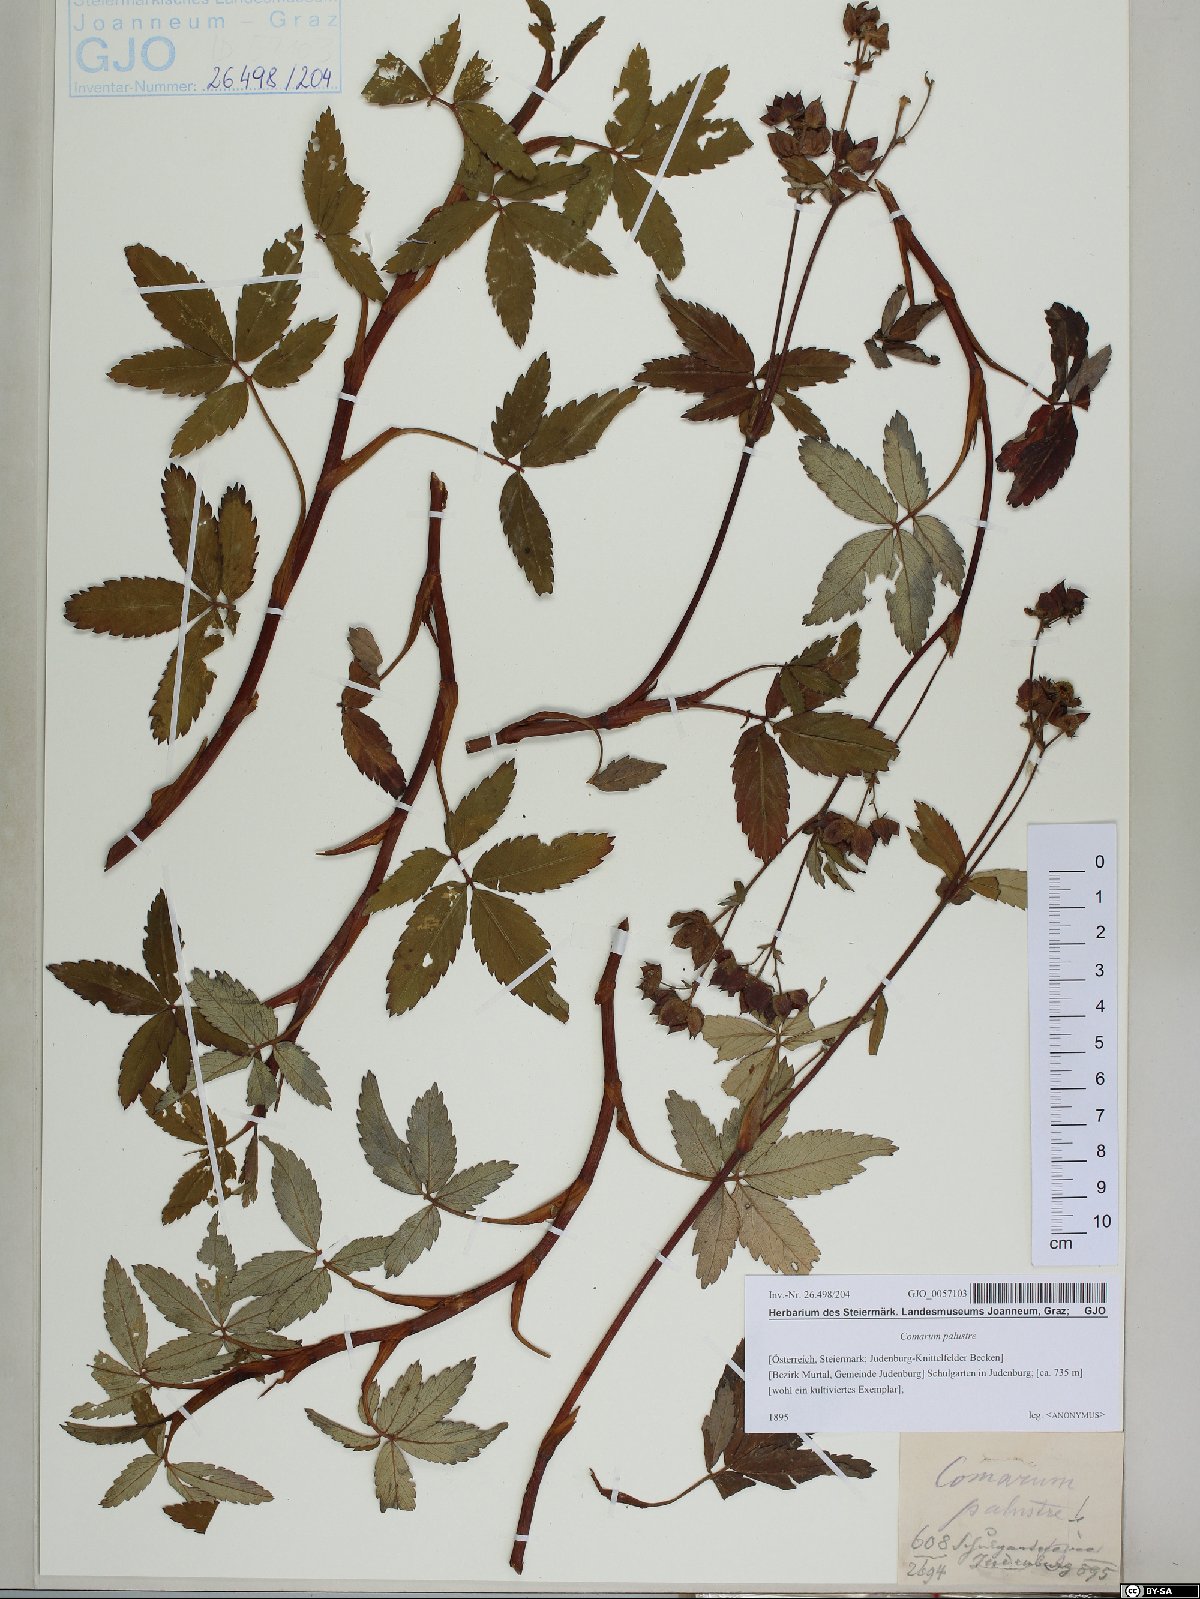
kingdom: Plantae
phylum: Tracheophyta
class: Magnoliopsida
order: Rosales
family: Rosaceae
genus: Comarum
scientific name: Comarum palustre
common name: Marsh cinquefoil
